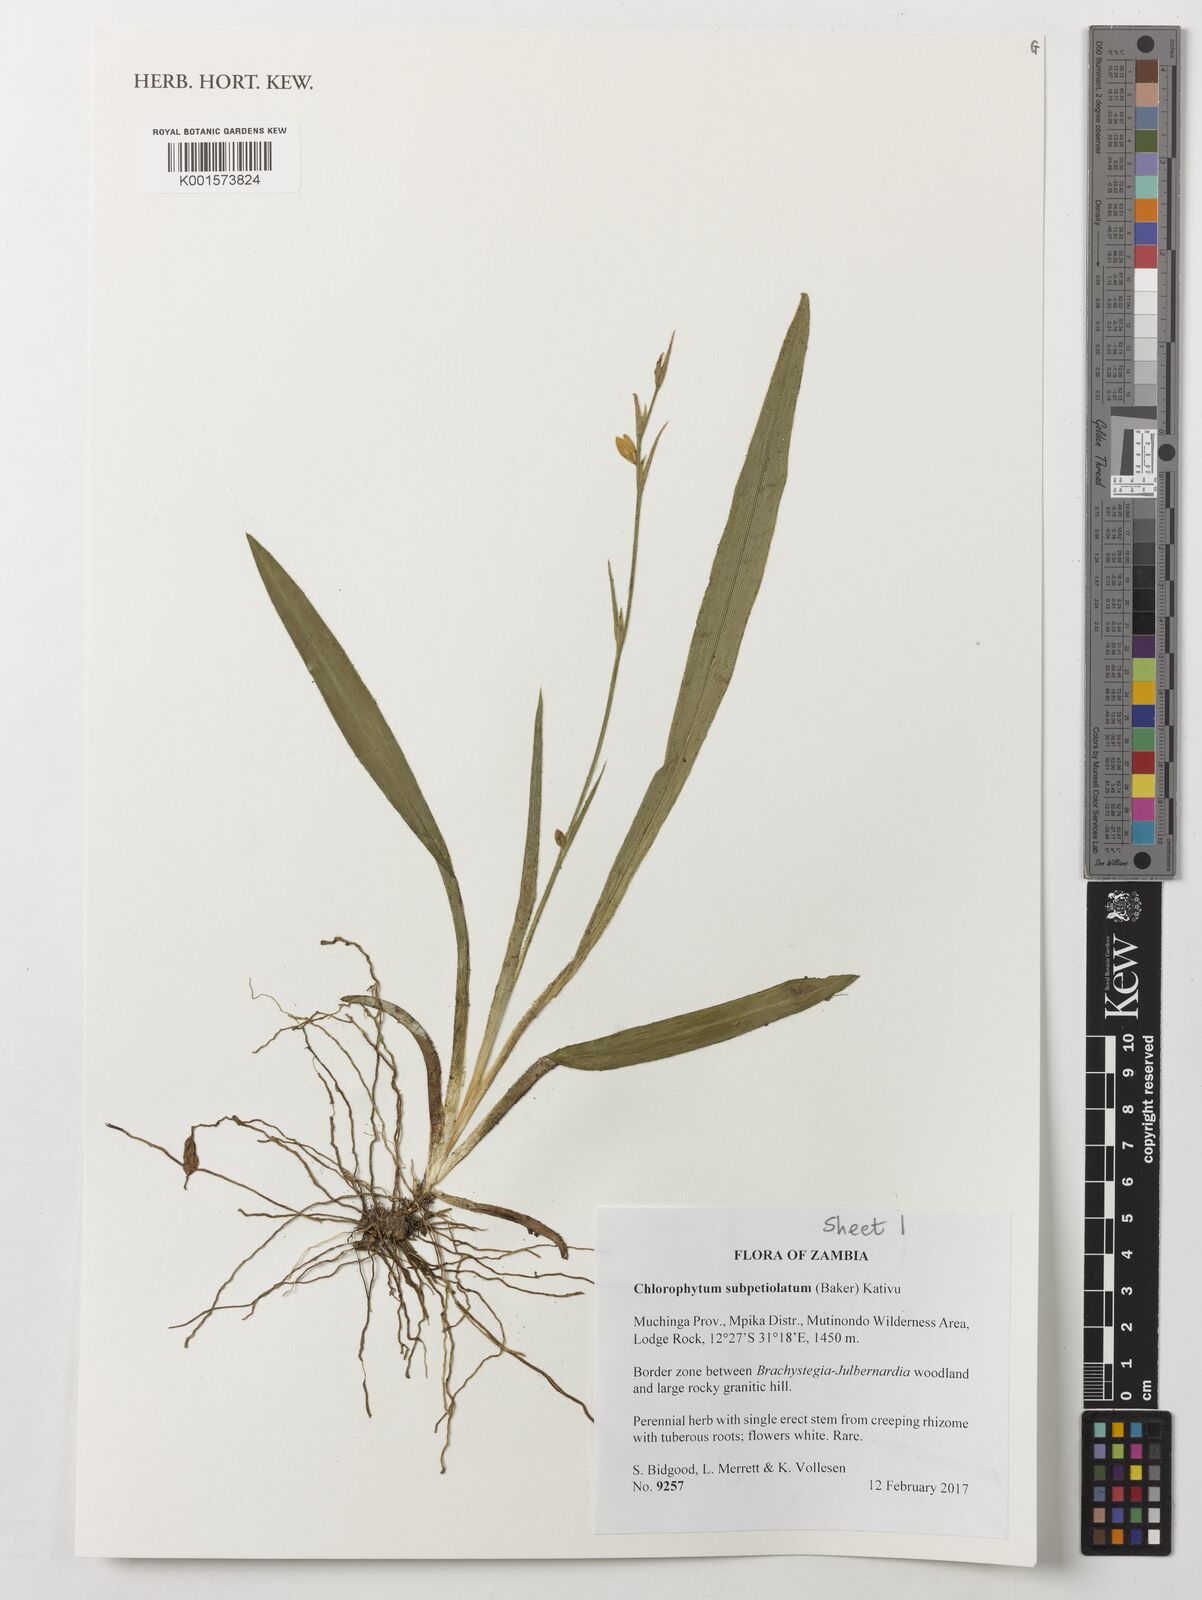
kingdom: Plantae
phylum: Tracheophyta
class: Liliopsida
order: Asparagales
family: Asparagaceae
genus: Chlorophytum
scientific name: Chlorophytum subpetiolatum
